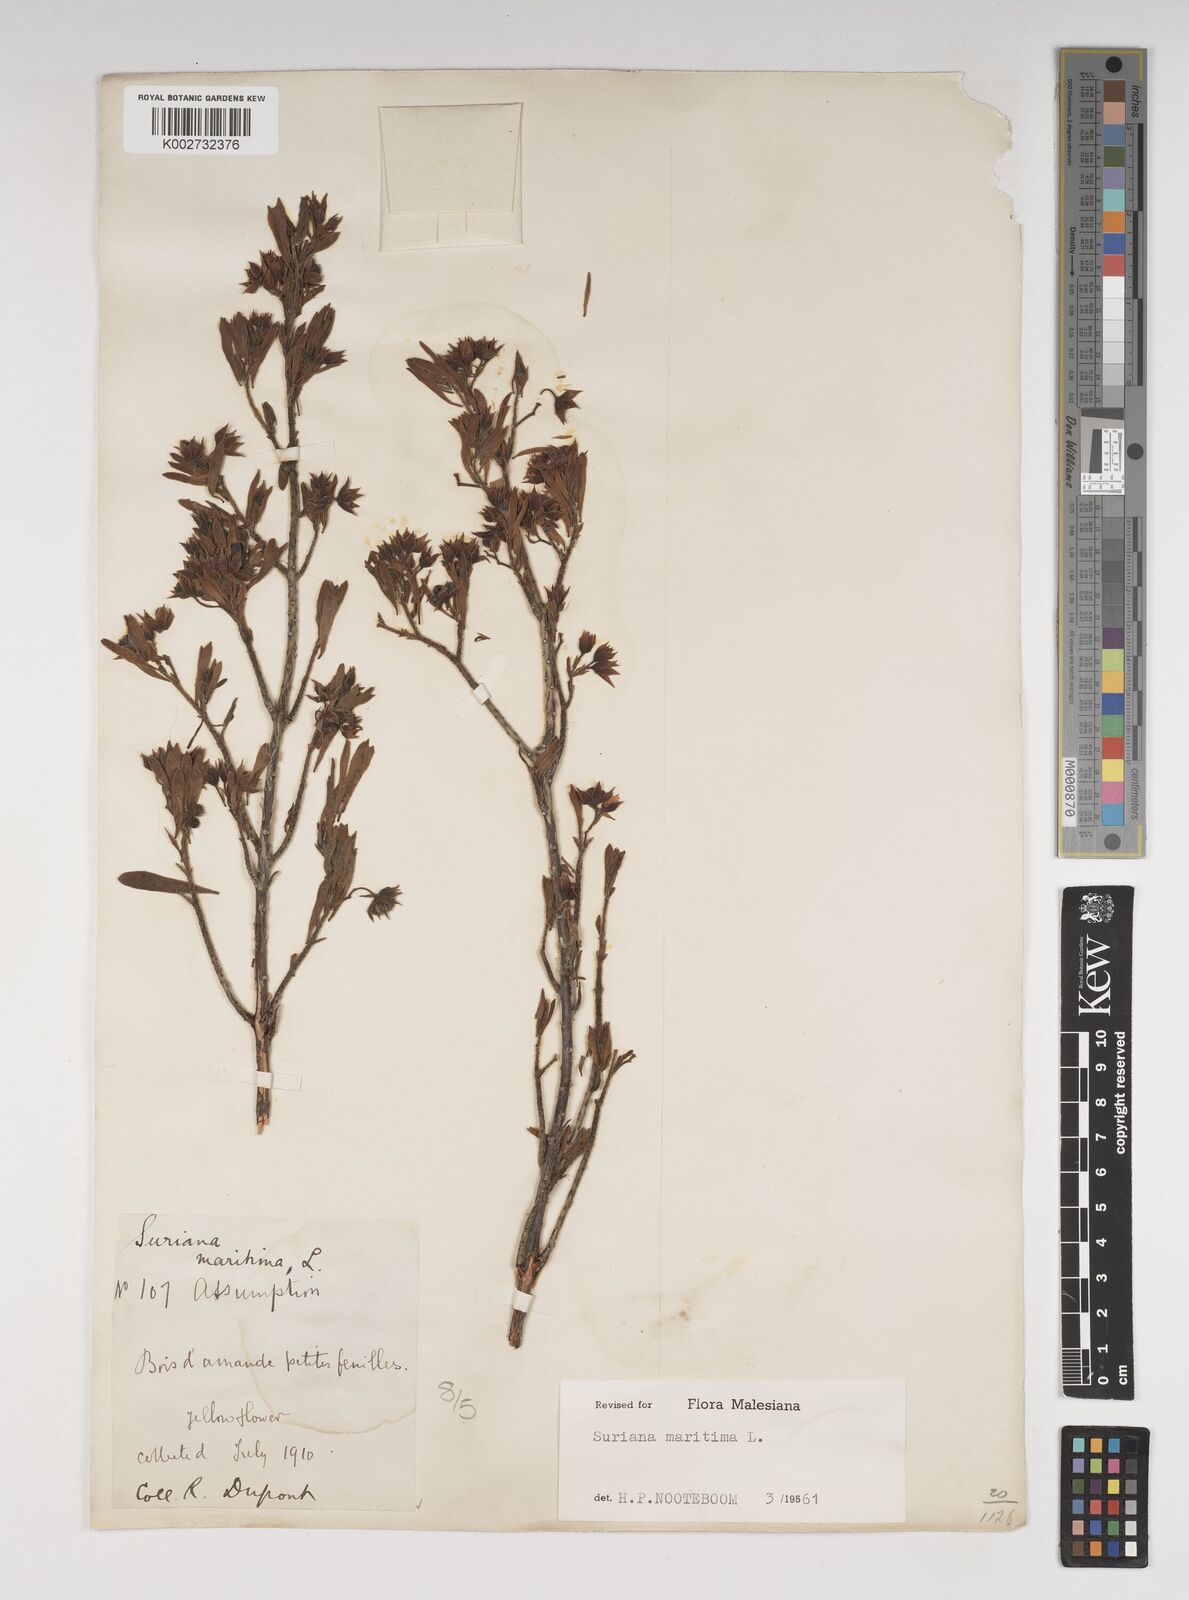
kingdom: Plantae
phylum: Tracheophyta
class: Magnoliopsida
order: Fabales
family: Surianaceae
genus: Suriana
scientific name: Suriana maritima
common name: Bay-cedar
